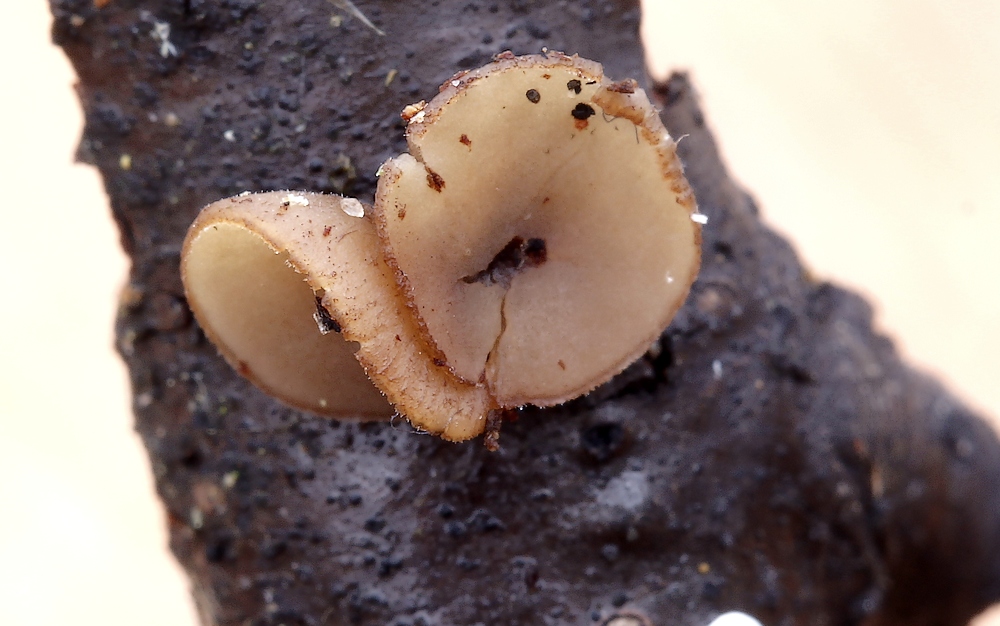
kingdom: Fungi
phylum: Ascomycota
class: Leotiomycetes
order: Helotiales
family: Rutstroemiaceae
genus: Rutstroemia
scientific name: Rutstroemia firma
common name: gren-brunskive
